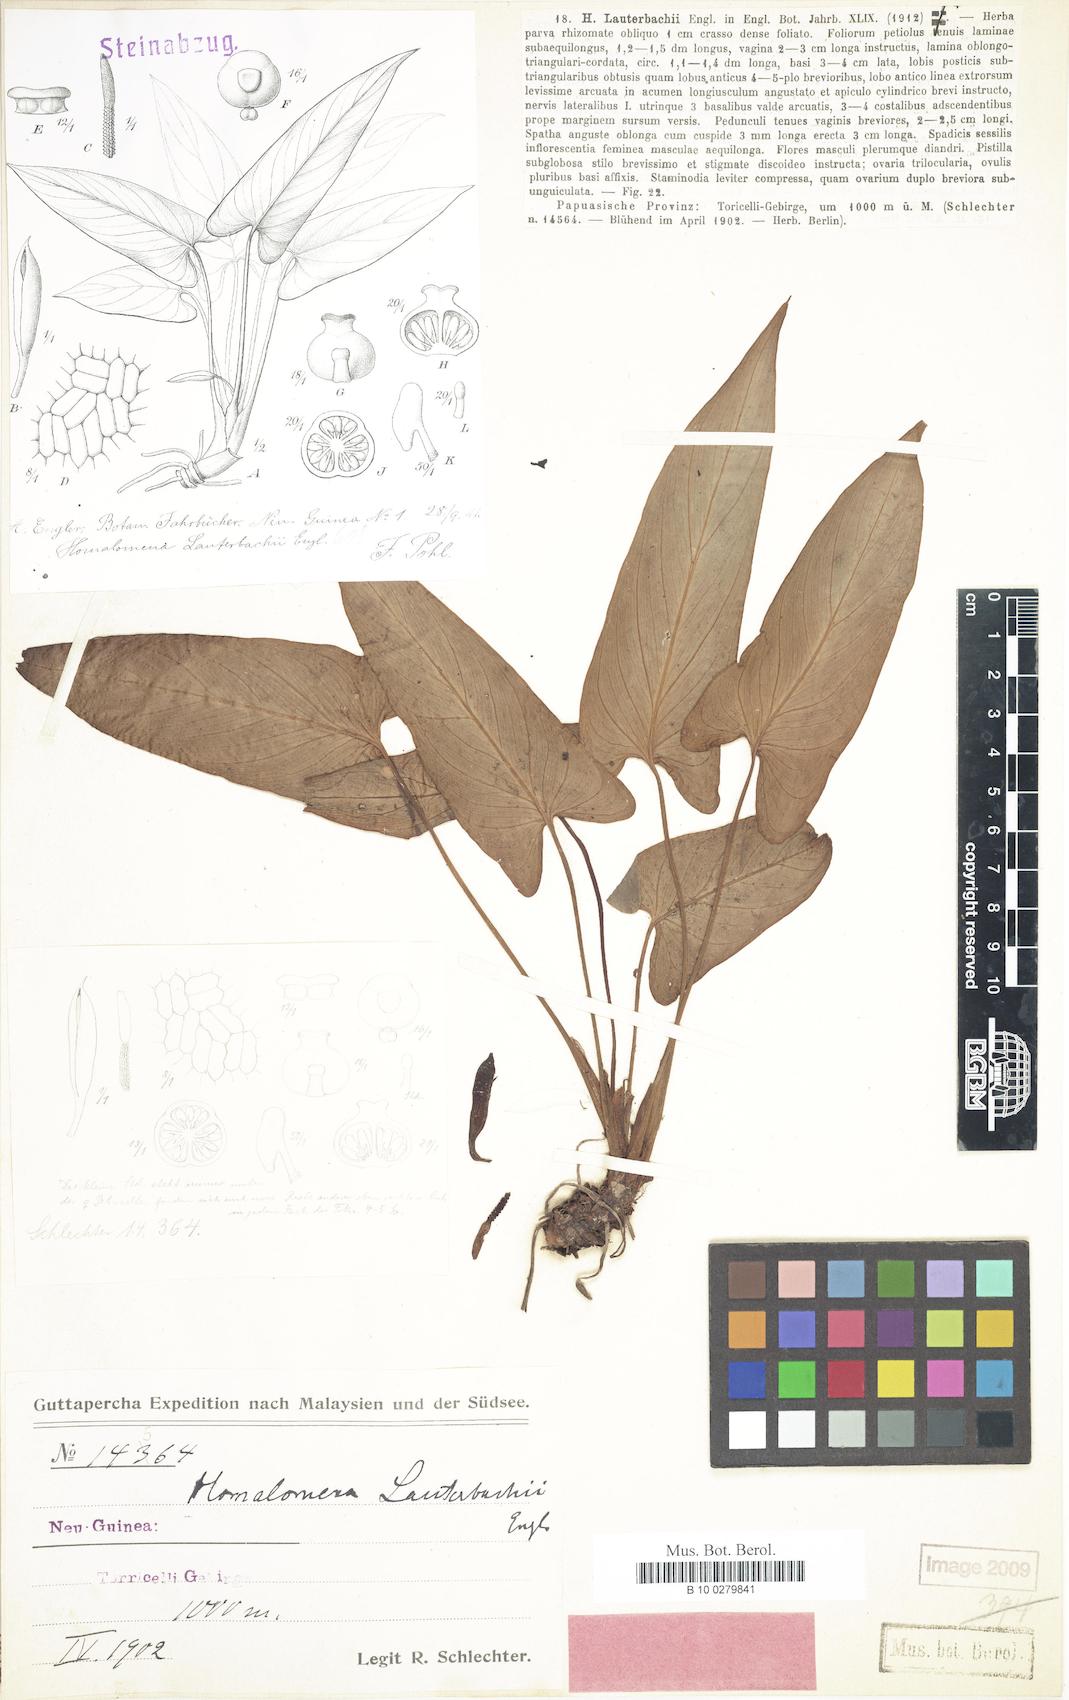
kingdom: Plantae
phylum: Tracheophyta
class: Liliopsida
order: Alismatales
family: Araceae
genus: Homalomena
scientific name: Homalomena lauterbachii
